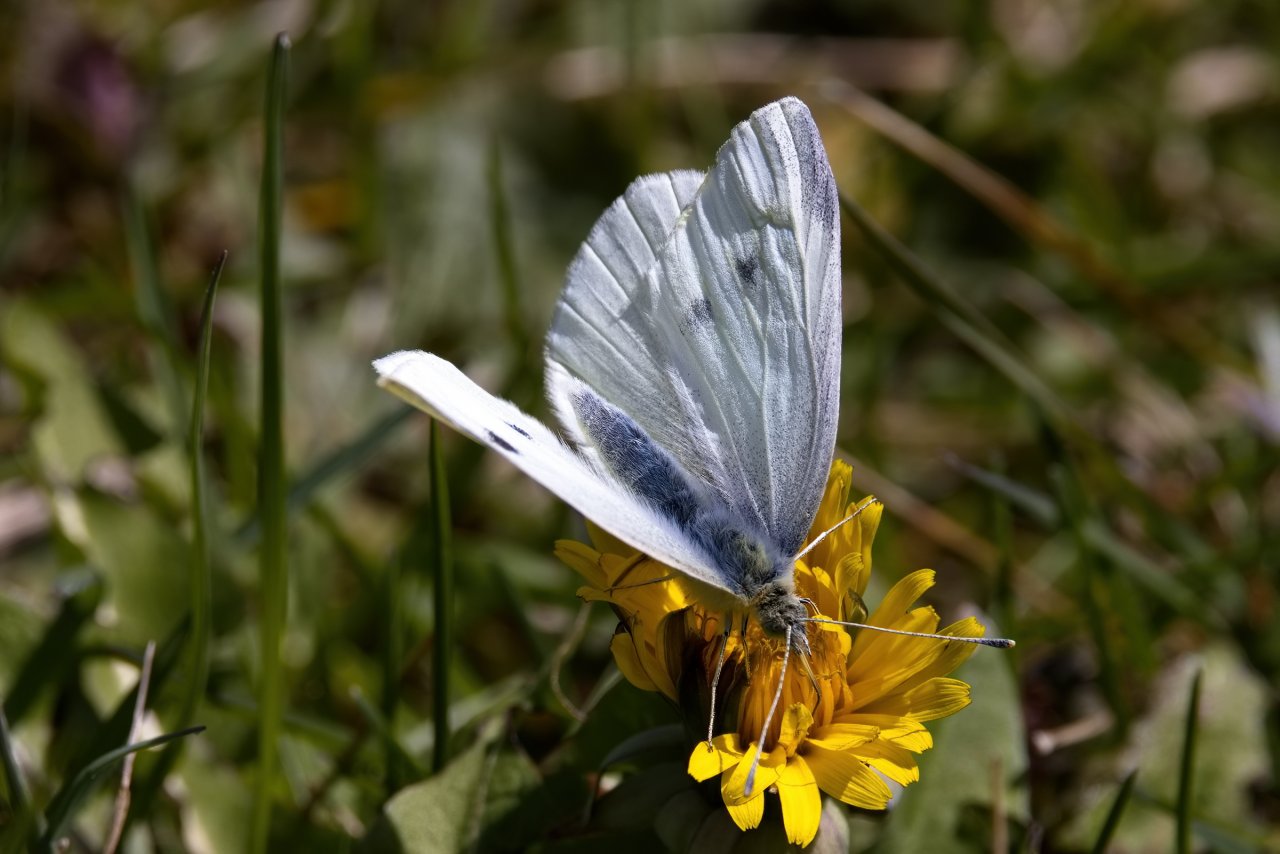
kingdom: Animalia
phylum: Arthropoda
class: Insecta
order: Lepidoptera
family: Pieridae
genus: Pieris
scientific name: Pieris rapae
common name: Cabbage White
